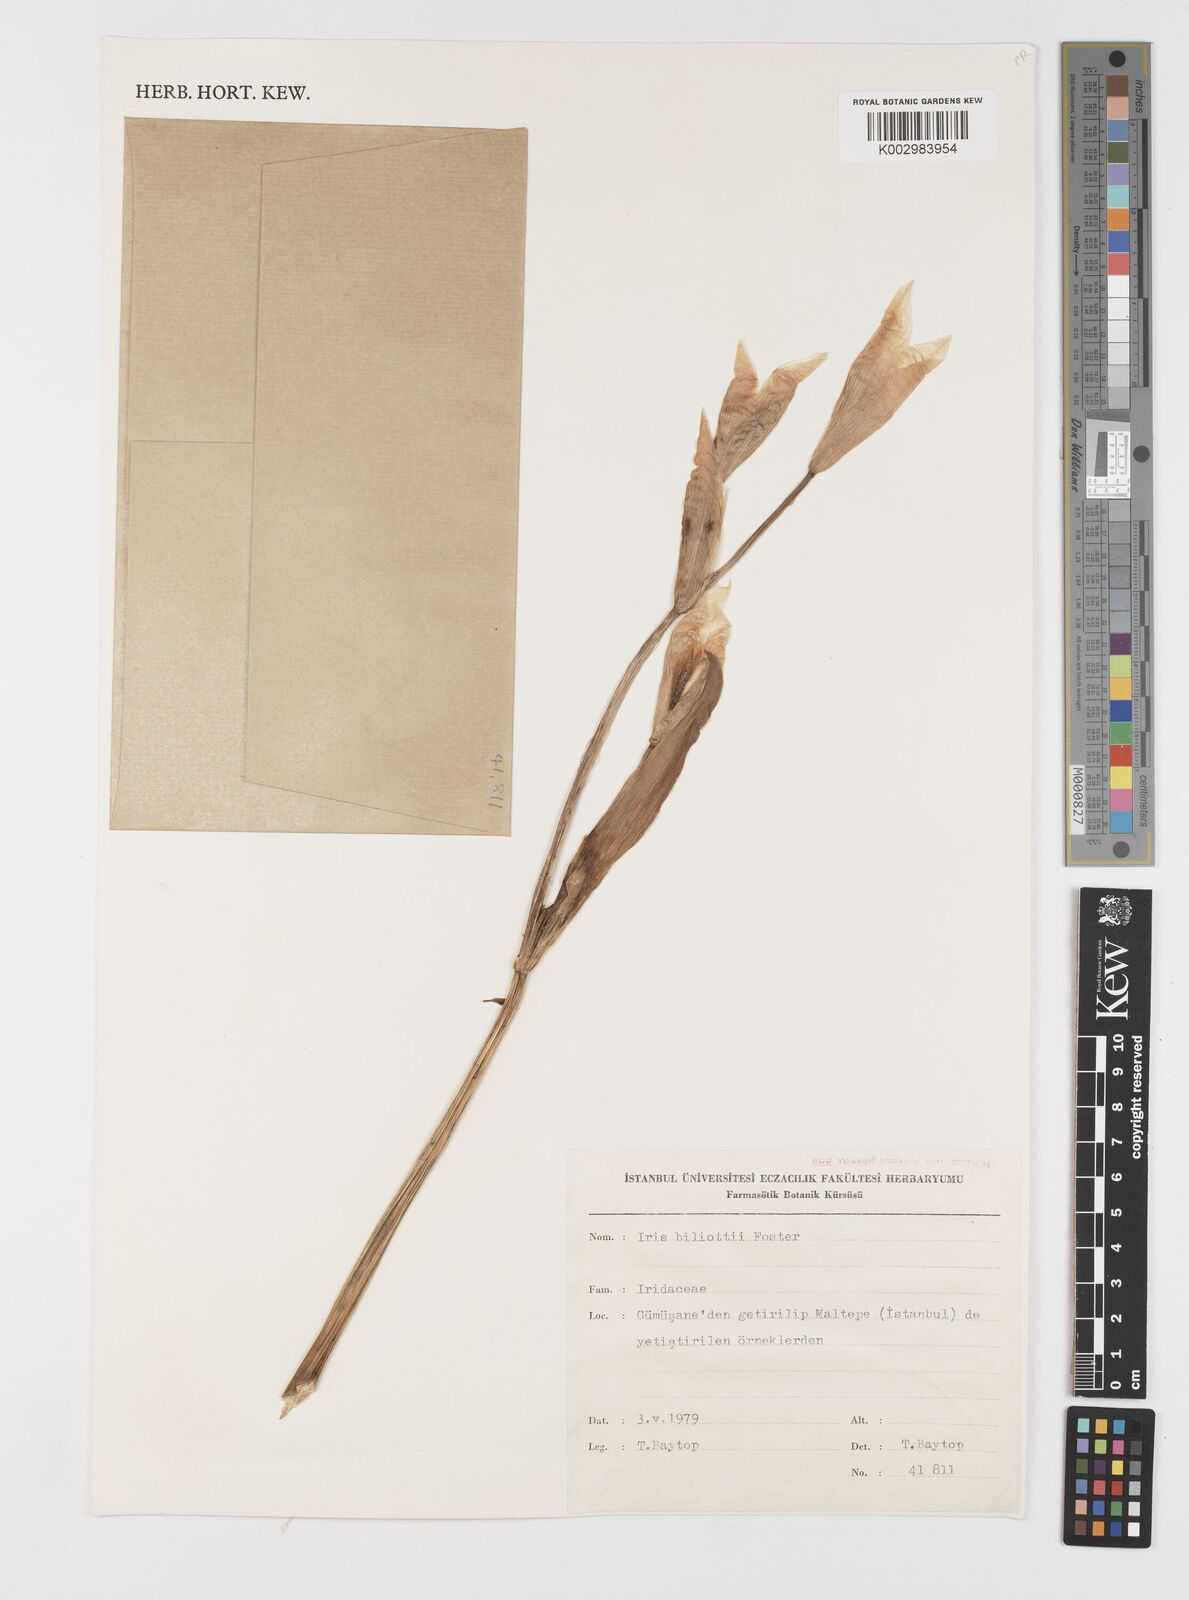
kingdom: Plantae
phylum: Tracheophyta
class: Liliopsida
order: Asparagales
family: Iridaceae
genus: Iris
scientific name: Iris germanica
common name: German iris
